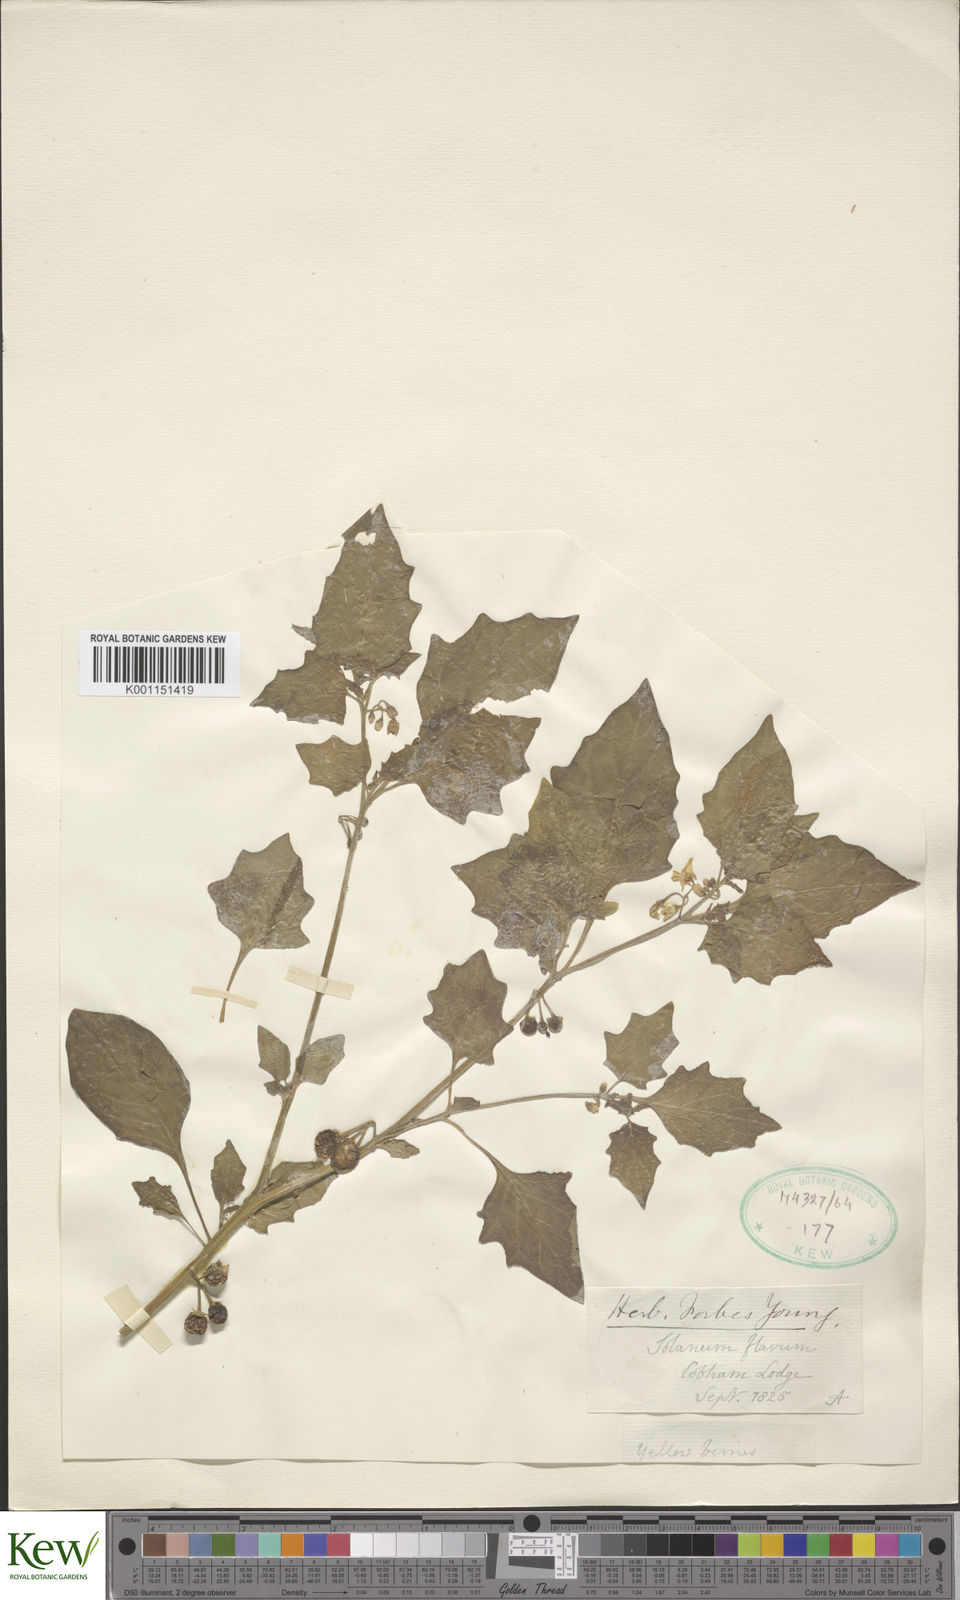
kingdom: Plantae
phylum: Tracheophyta
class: Magnoliopsida
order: Solanales
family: Solanaceae
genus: Solanum
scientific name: Solanum villosum
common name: Red nightshade
